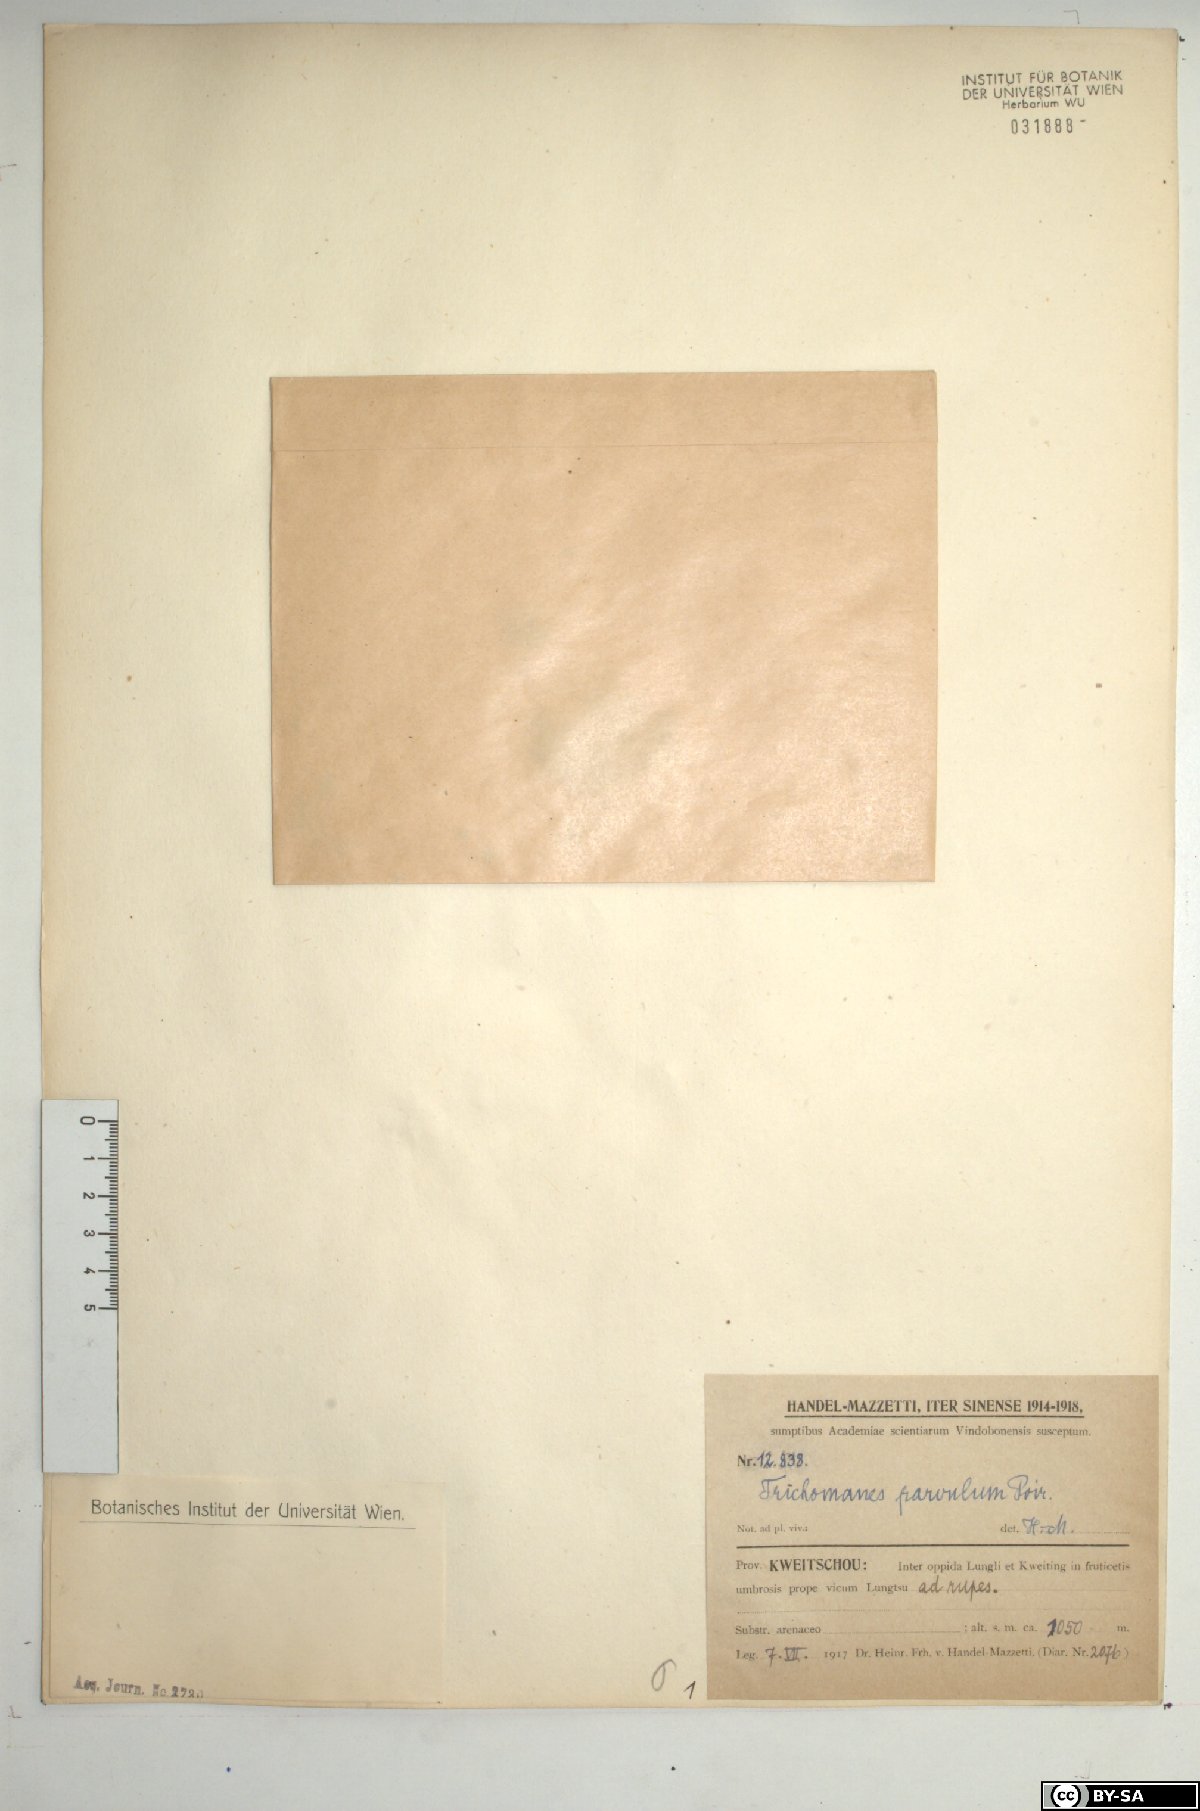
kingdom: Plantae
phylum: Tracheophyta
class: Polypodiopsida
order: Hymenophyllales
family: Hymenophyllaceae
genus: Crepidomanes
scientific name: Crepidomanes parvulum
